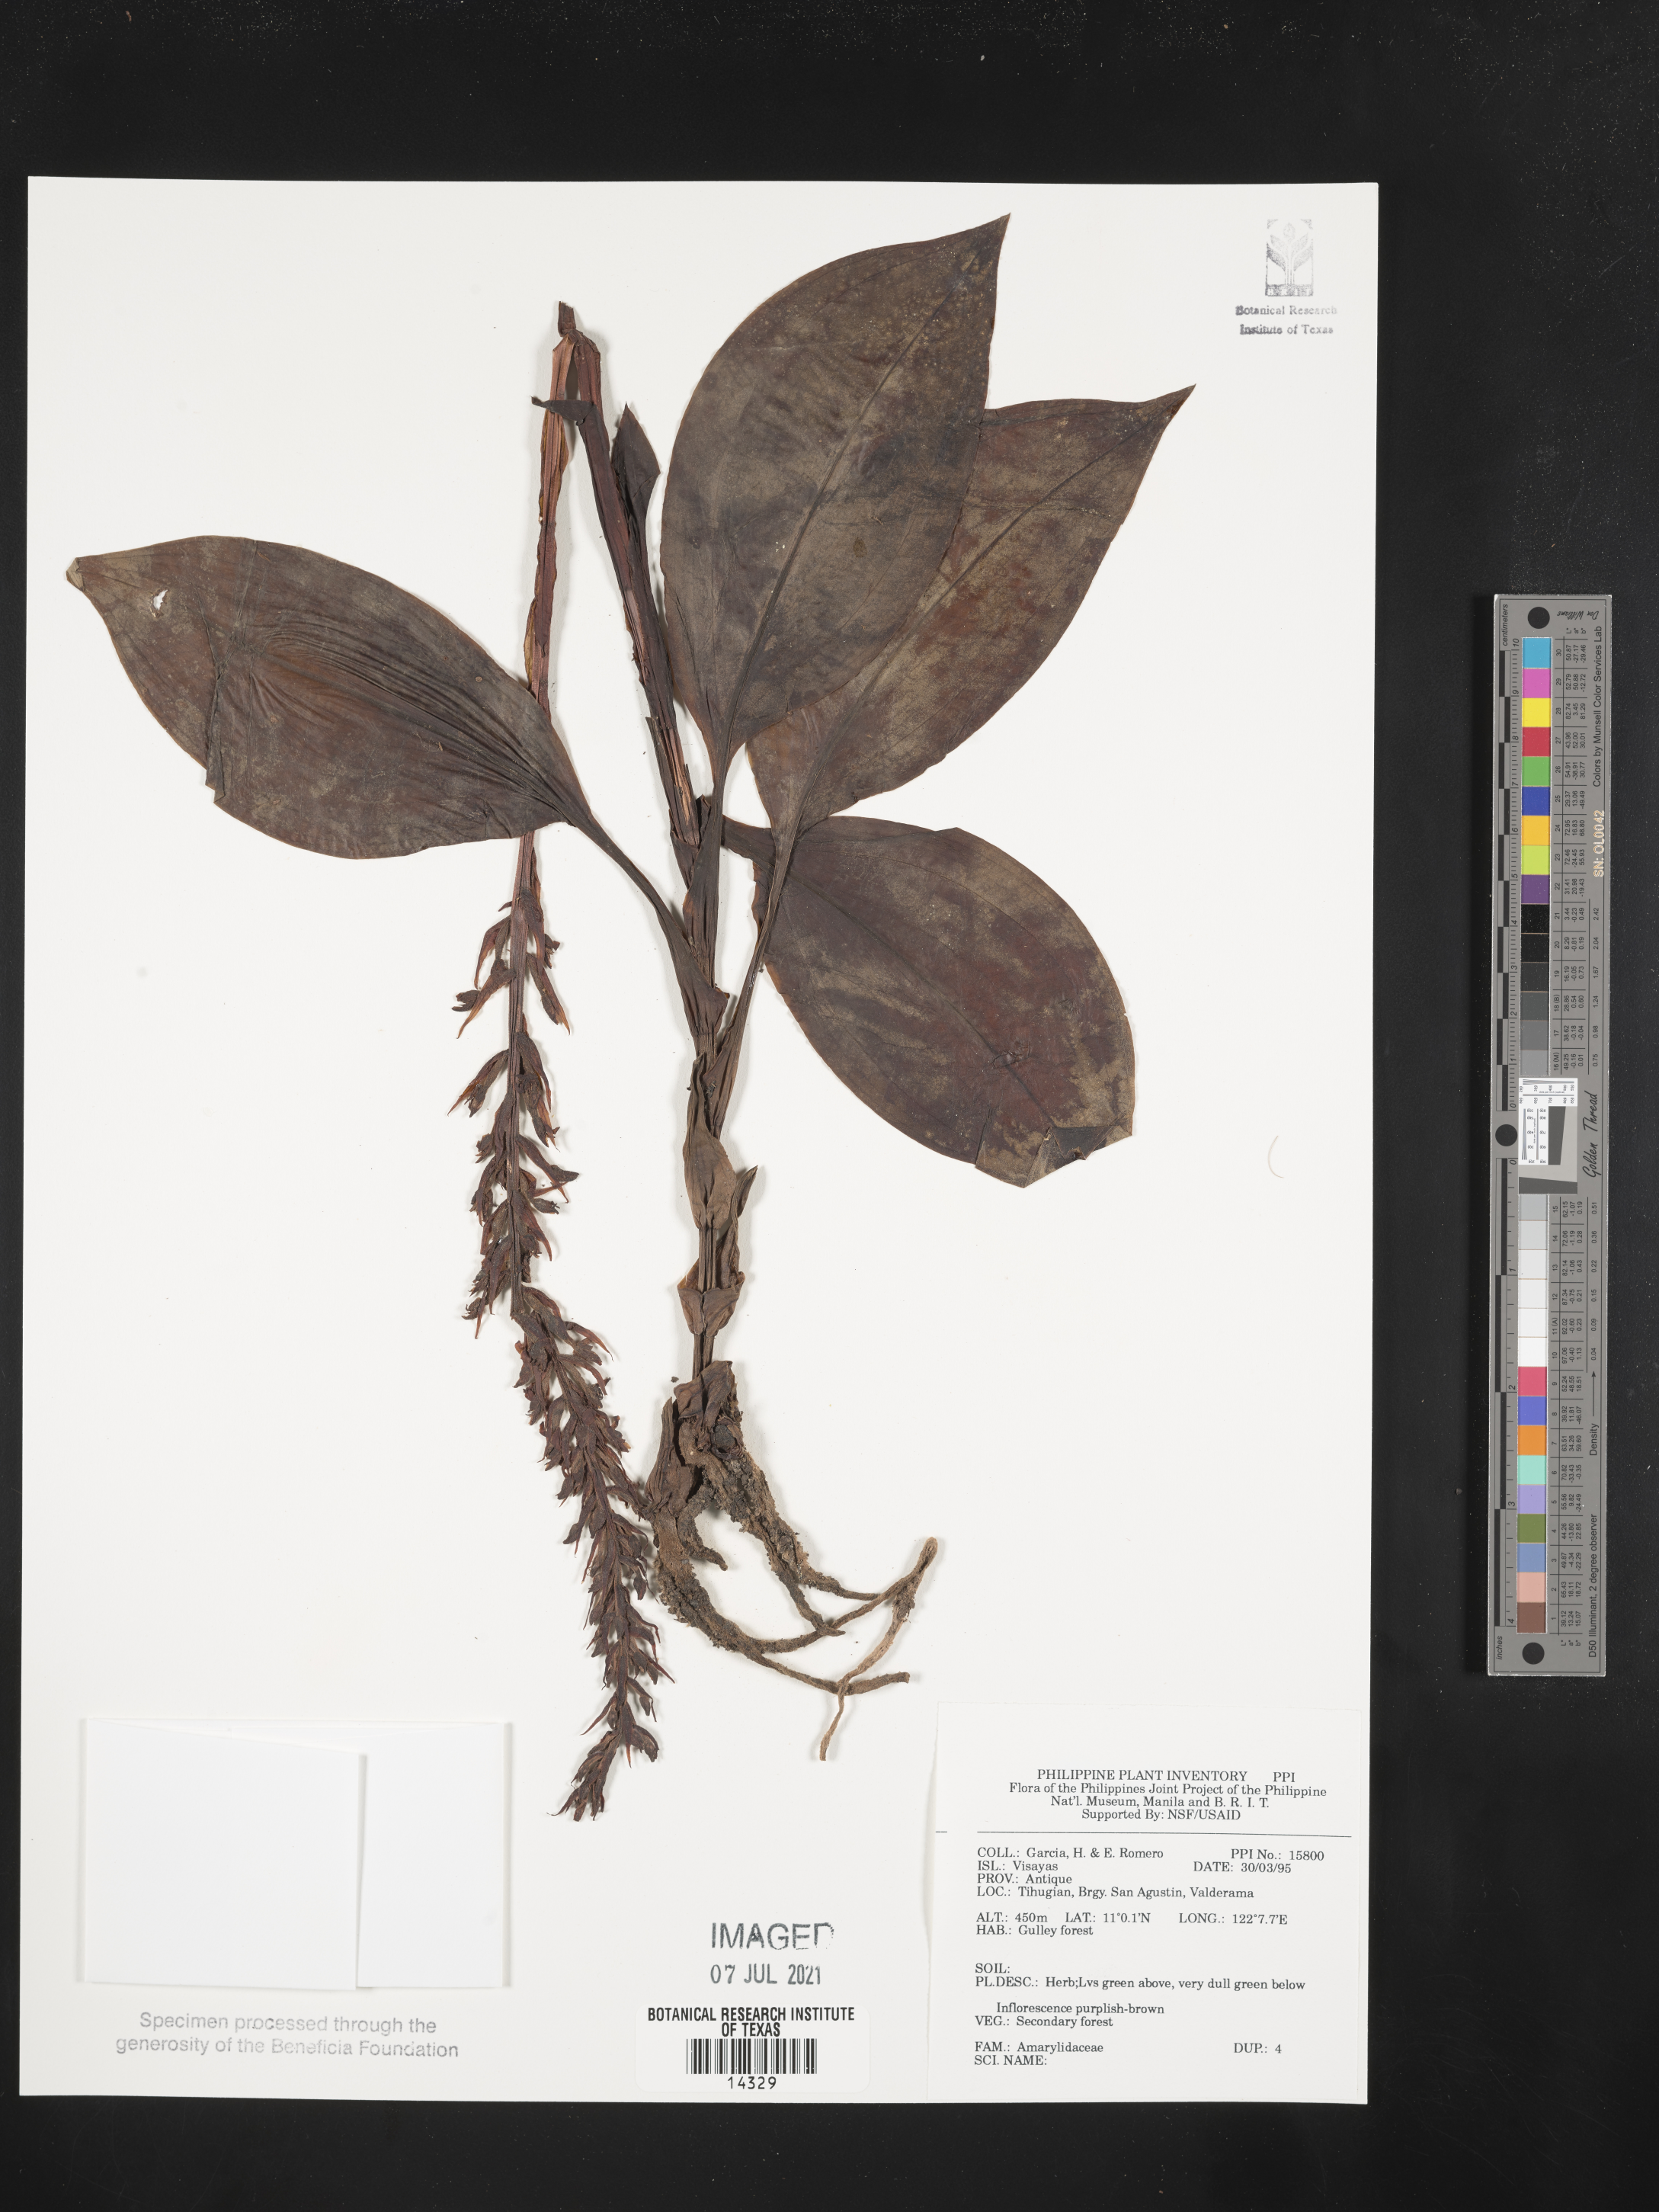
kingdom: Plantae
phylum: Tracheophyta
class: Liliopsida
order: Asparagales
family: Amaryllidaceae
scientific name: Amaryllidaceae
